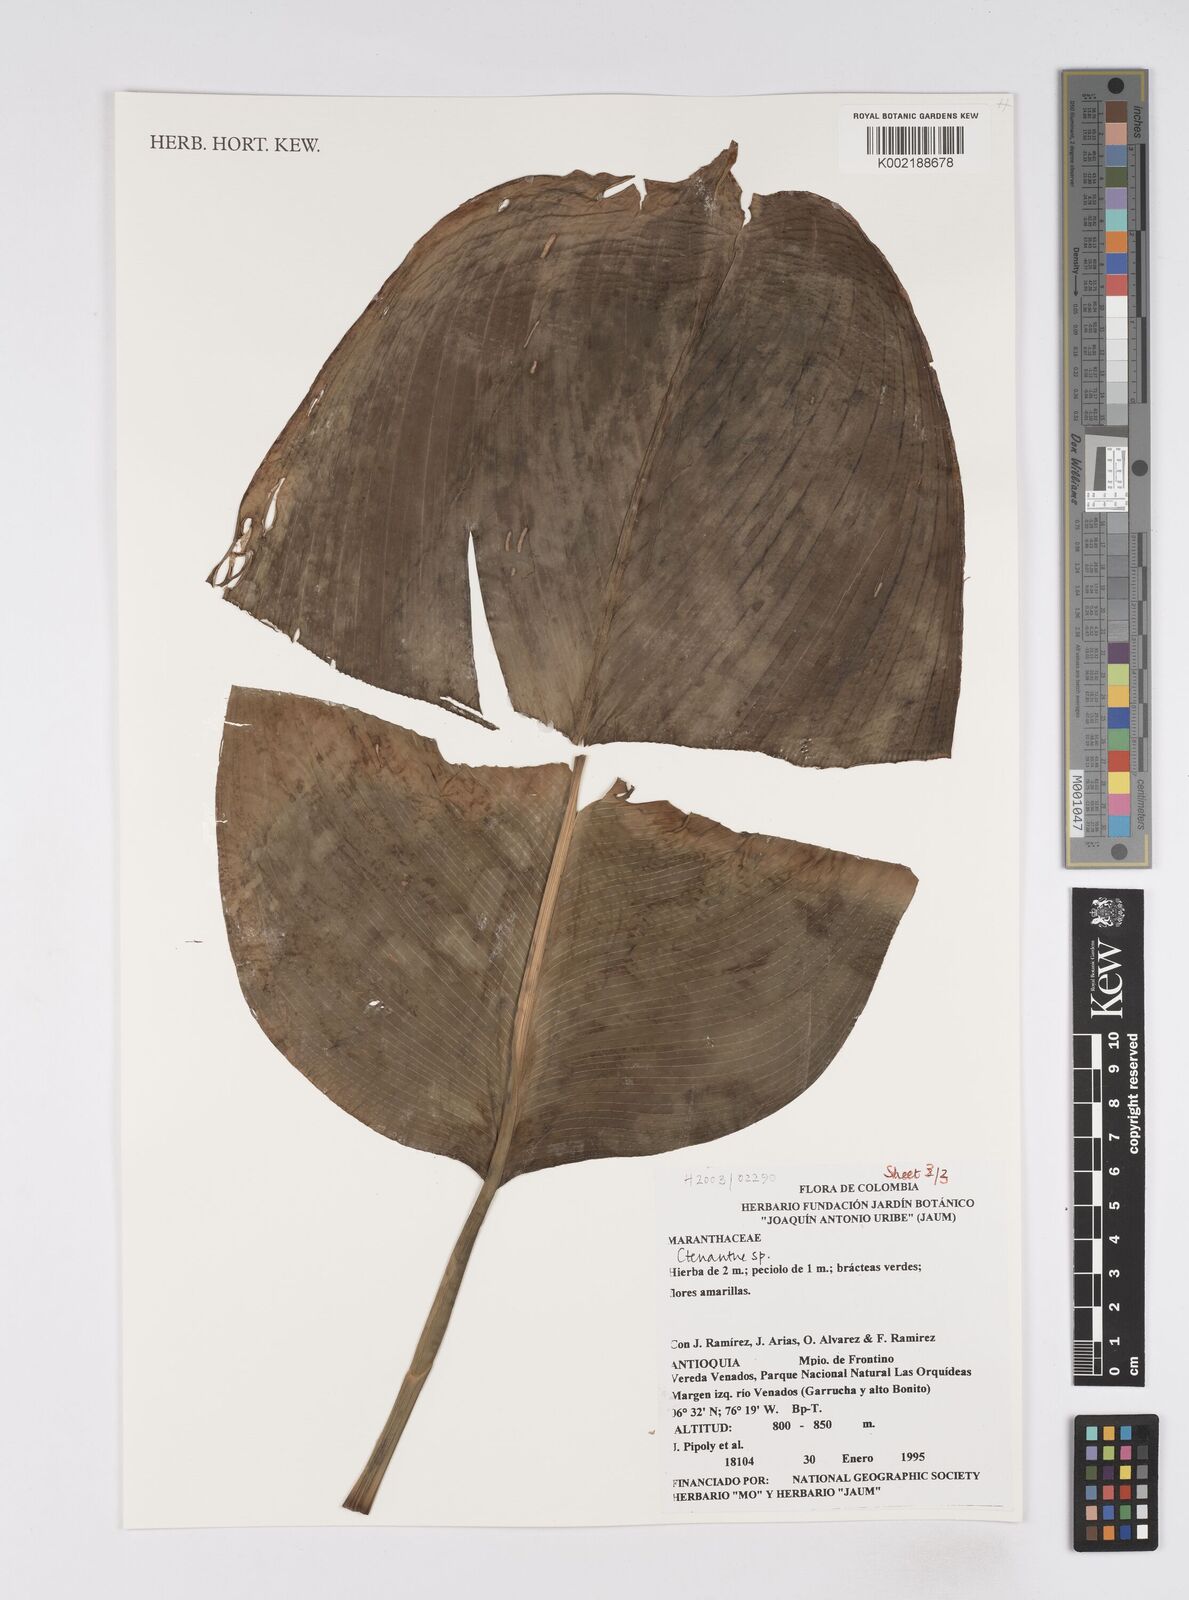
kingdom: Plantae
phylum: Tracheophyta
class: Liliopsida
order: Zingiberales
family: Marantaceae
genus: Ctenanthe
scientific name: Ctenanthe
